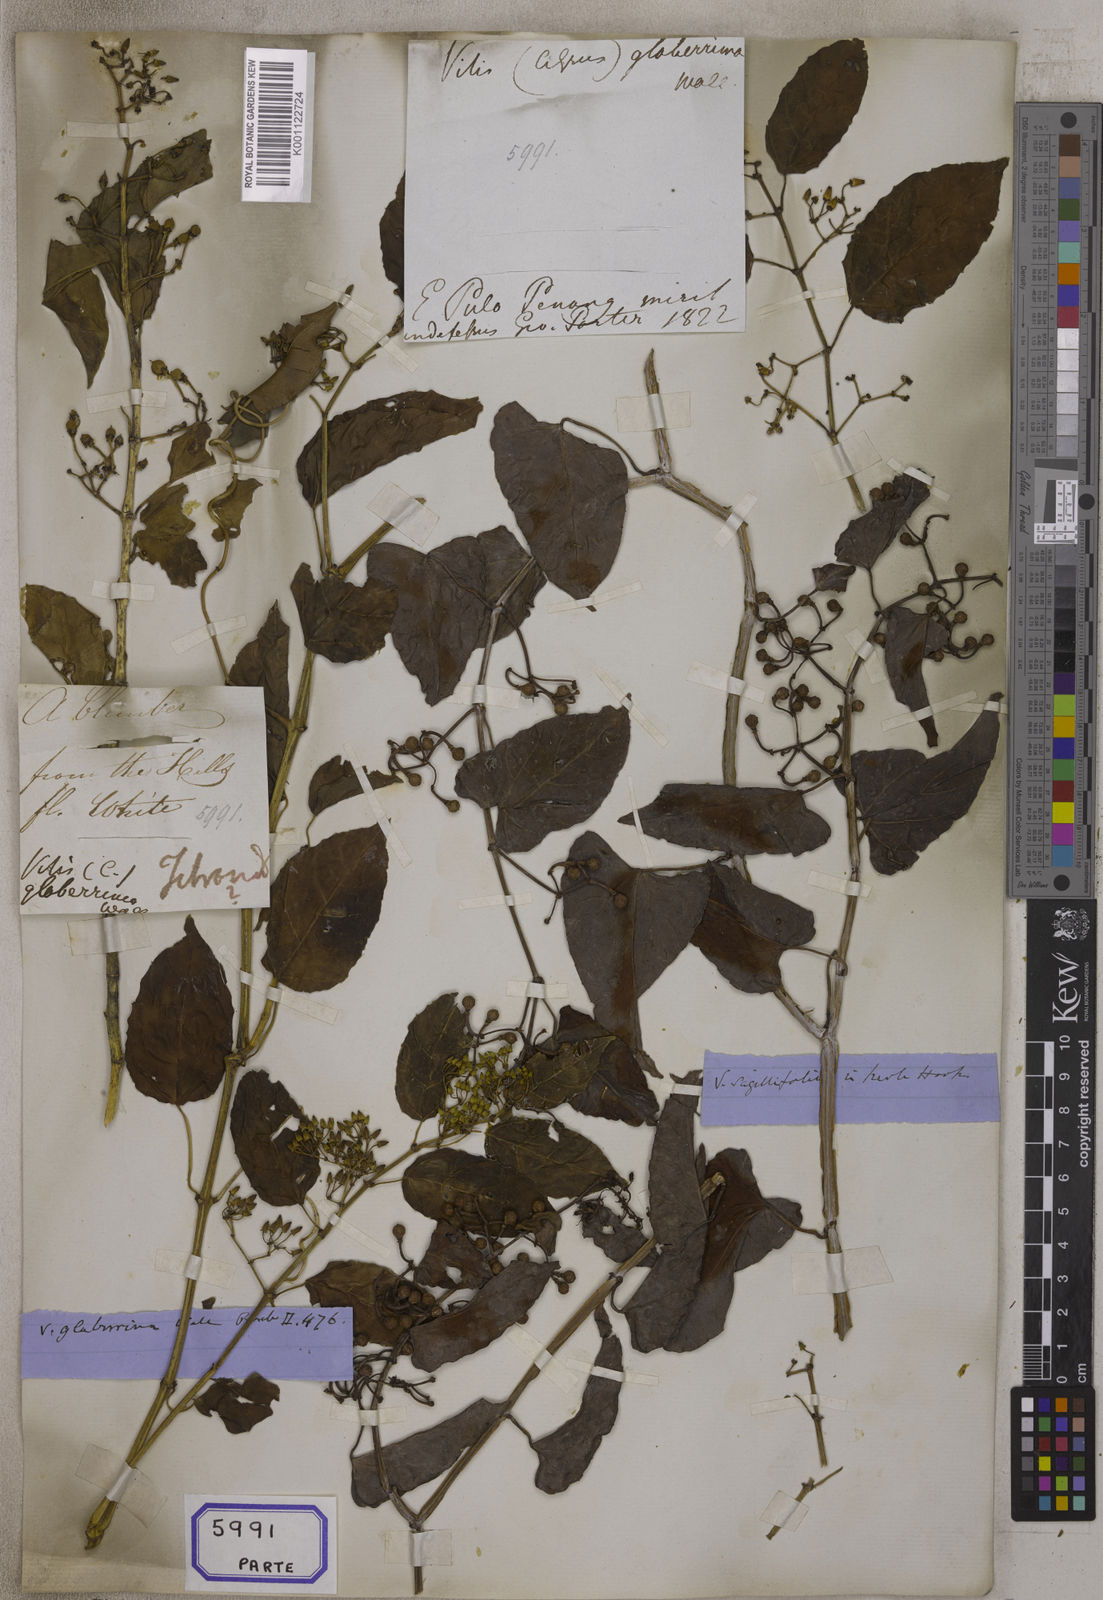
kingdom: Plantae
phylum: Tracheophyta
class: Magnoliopsida
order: Vitales
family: Vitaceae
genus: Cissus
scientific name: Cissus nodosa
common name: Grape ivy
